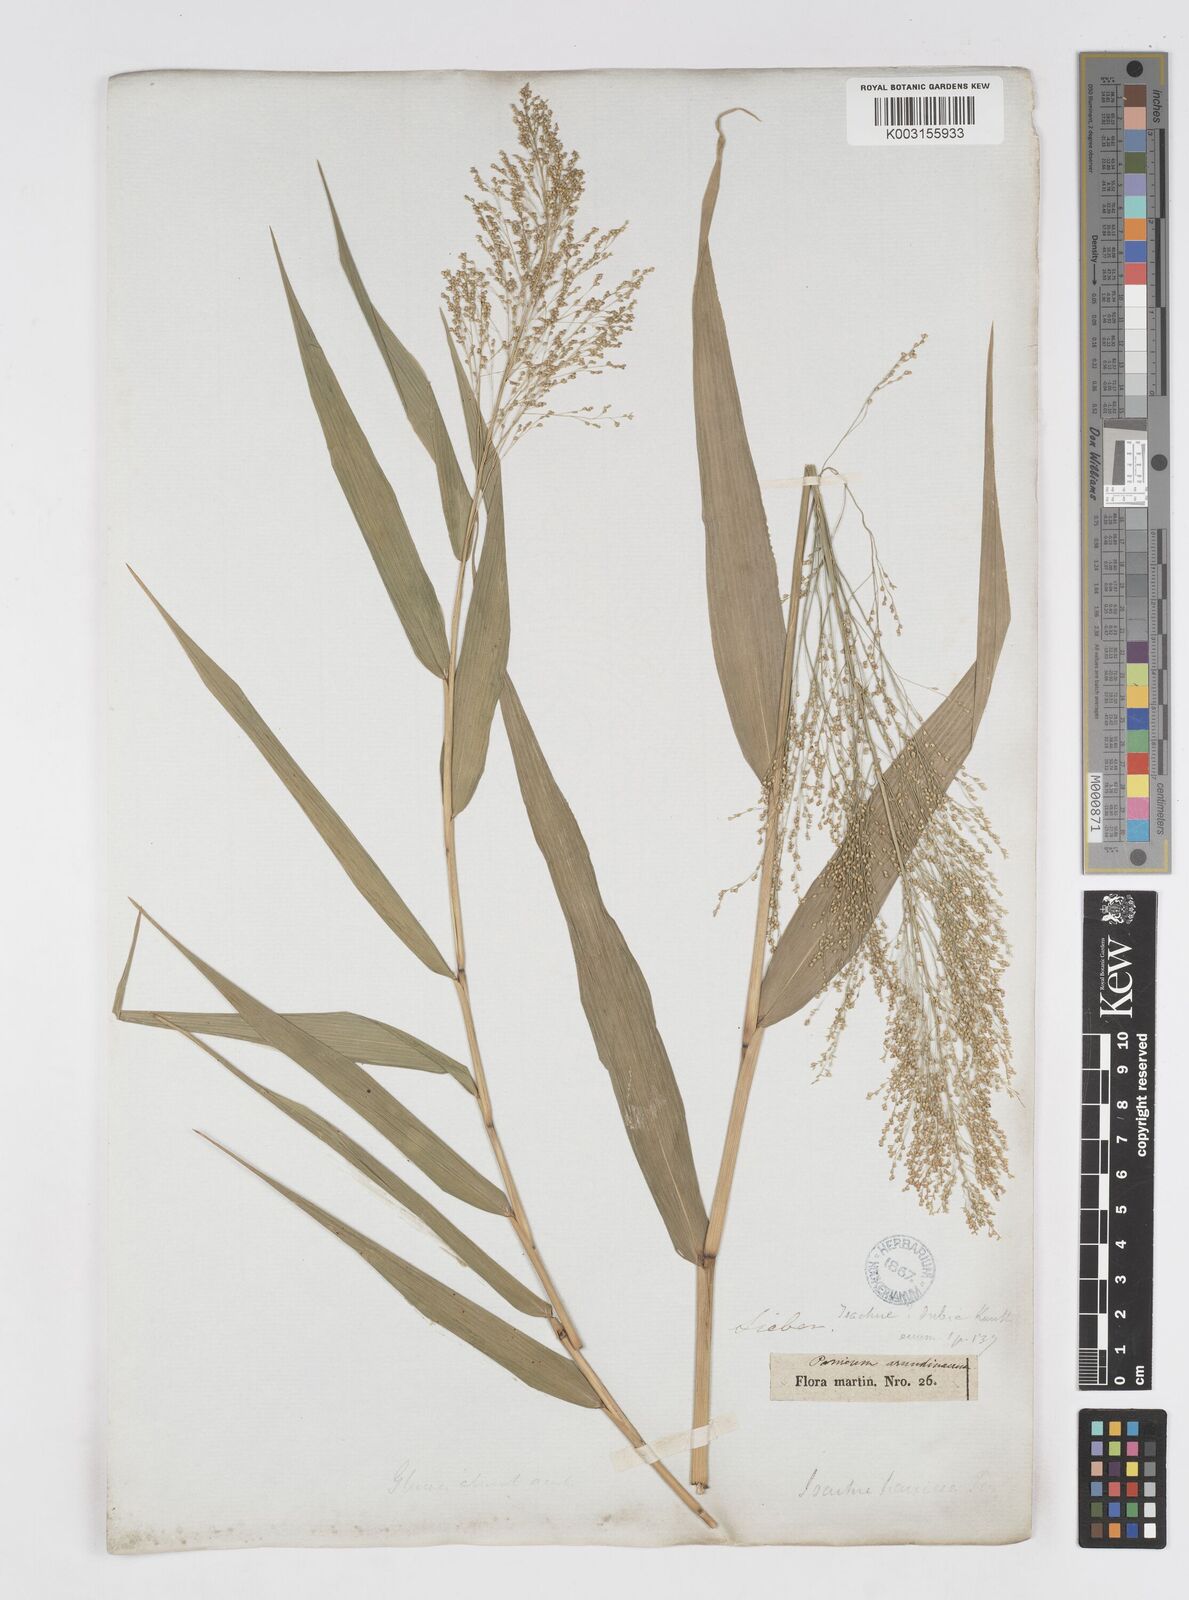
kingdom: Plantae
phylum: Tracheophyta
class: Liliopsida
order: Poales
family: Poaceae
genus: Isachne
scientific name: Isachne disperma
